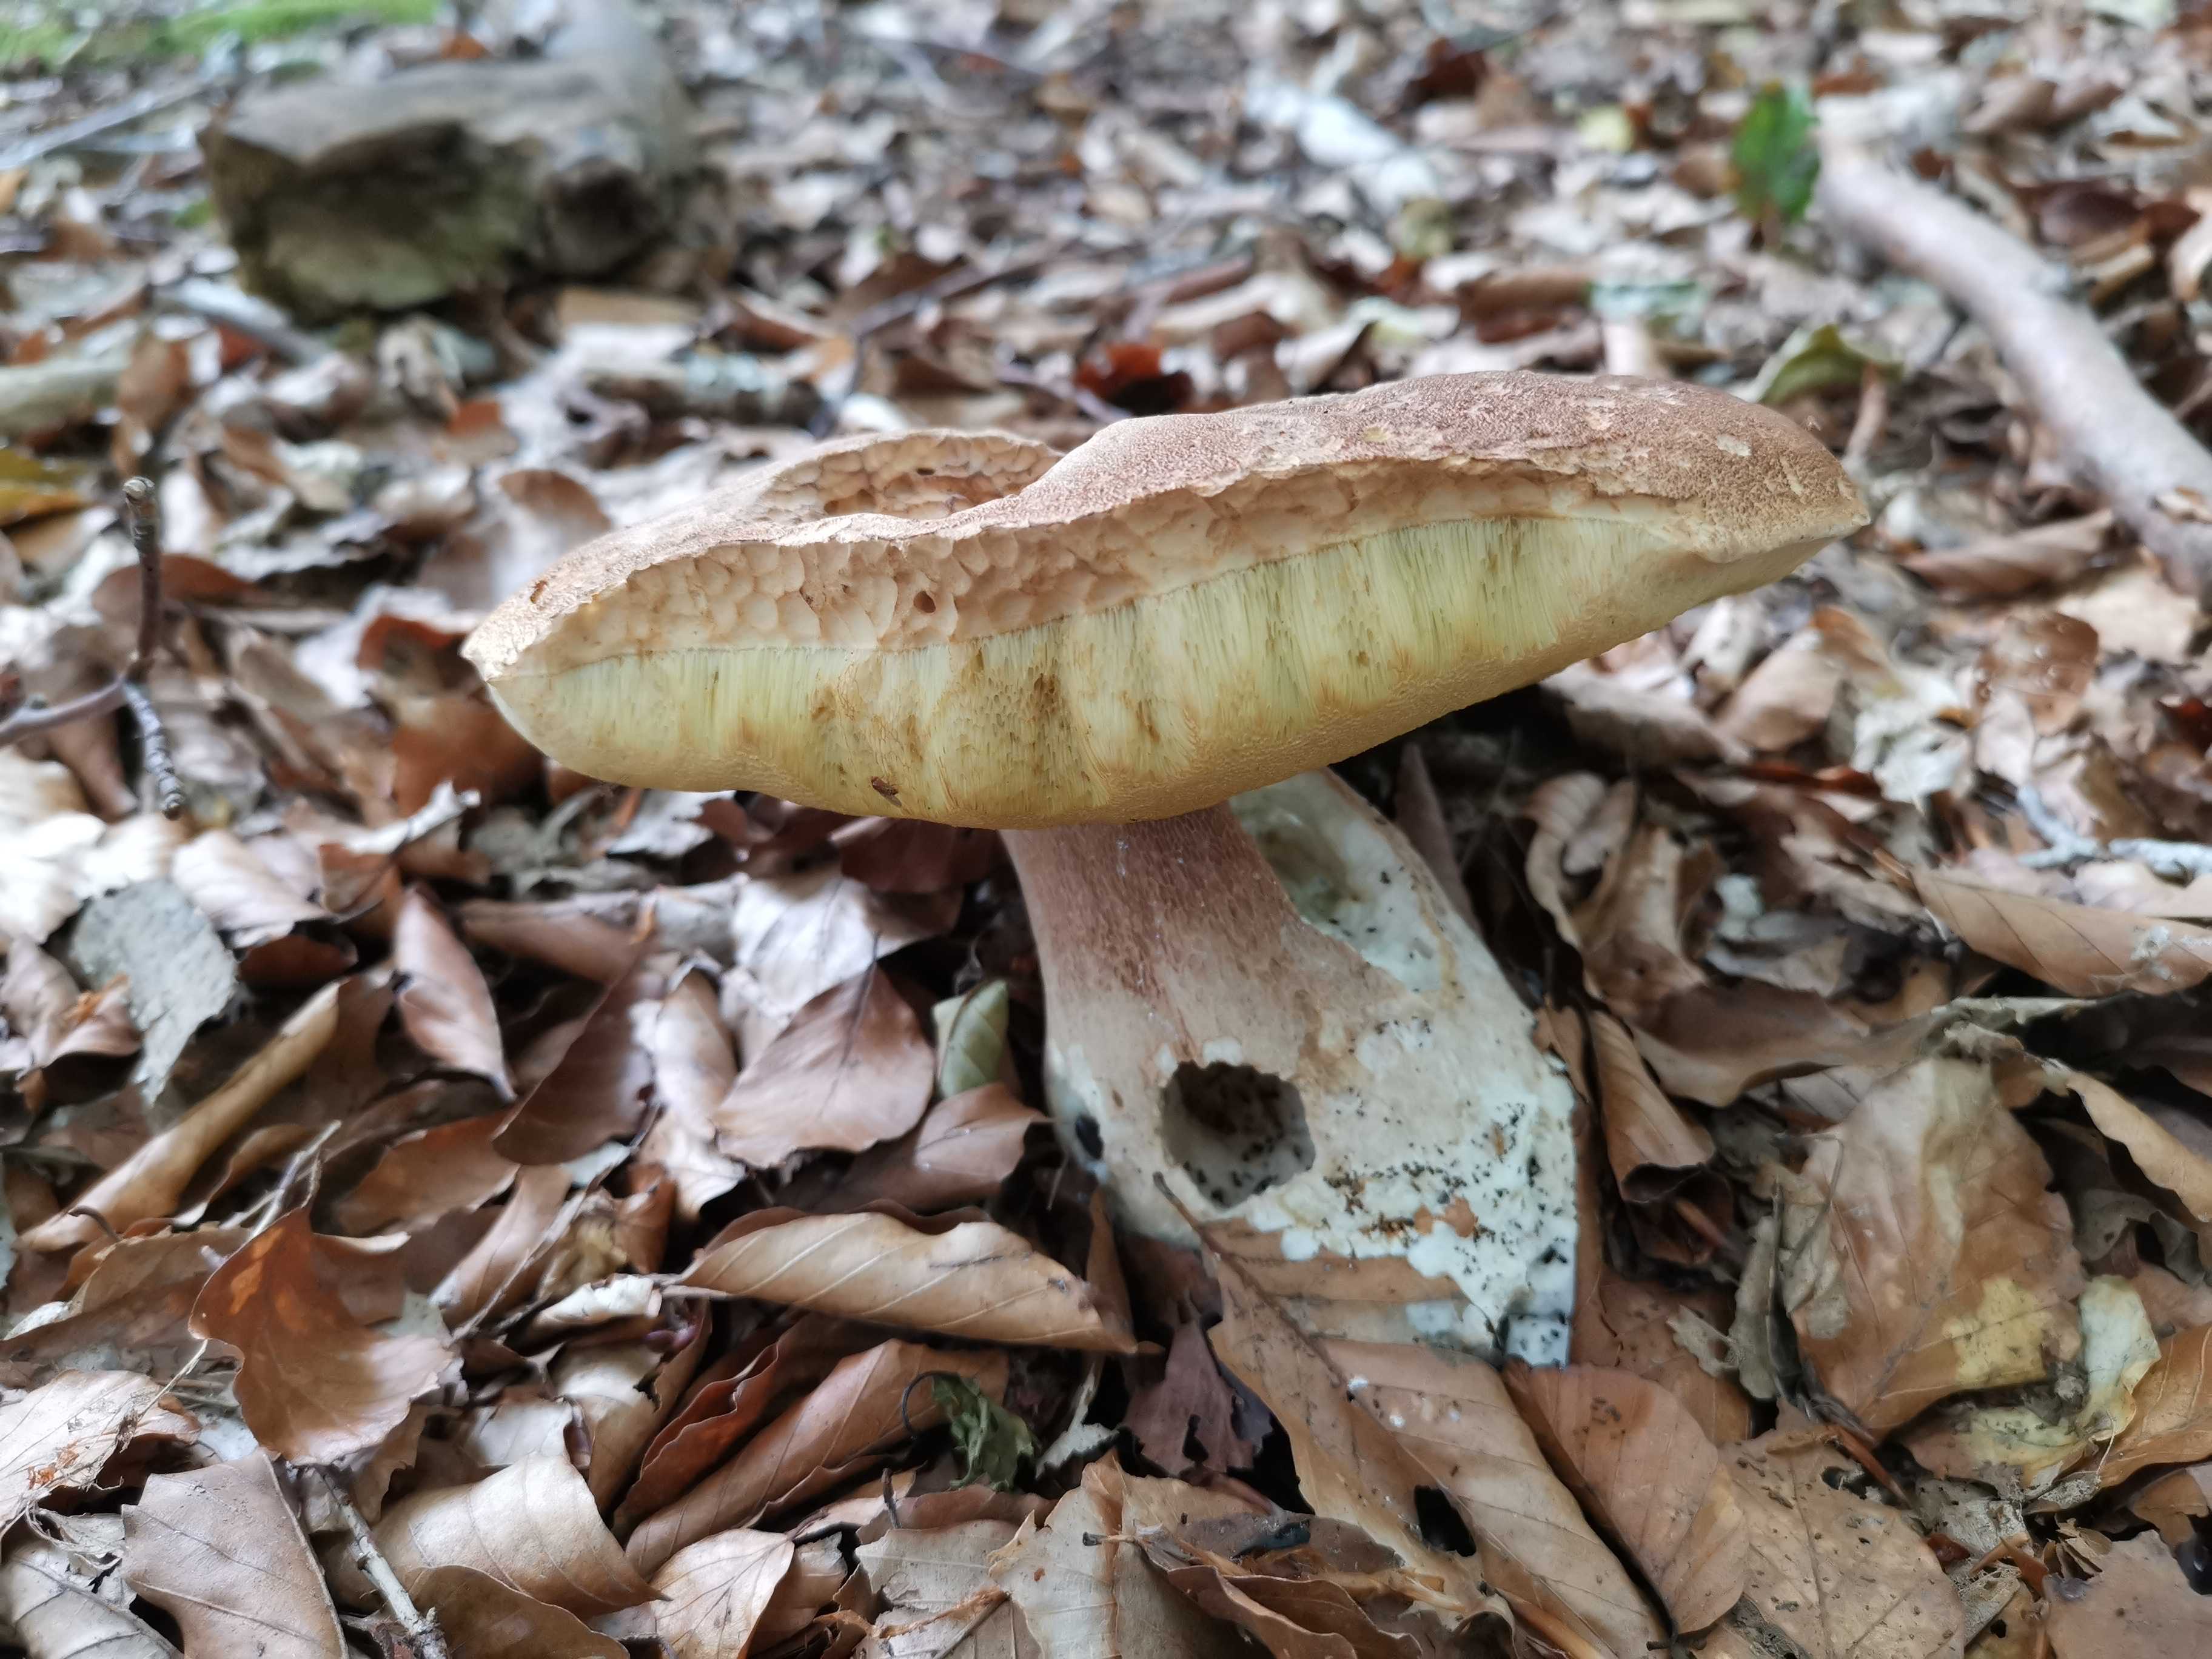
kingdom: Fungi
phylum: Basidiomycota
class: Agaricomycetes
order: Boletales
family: Boletaceae
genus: Boletus
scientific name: Boletus reticulatus
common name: sommer-rørhat
